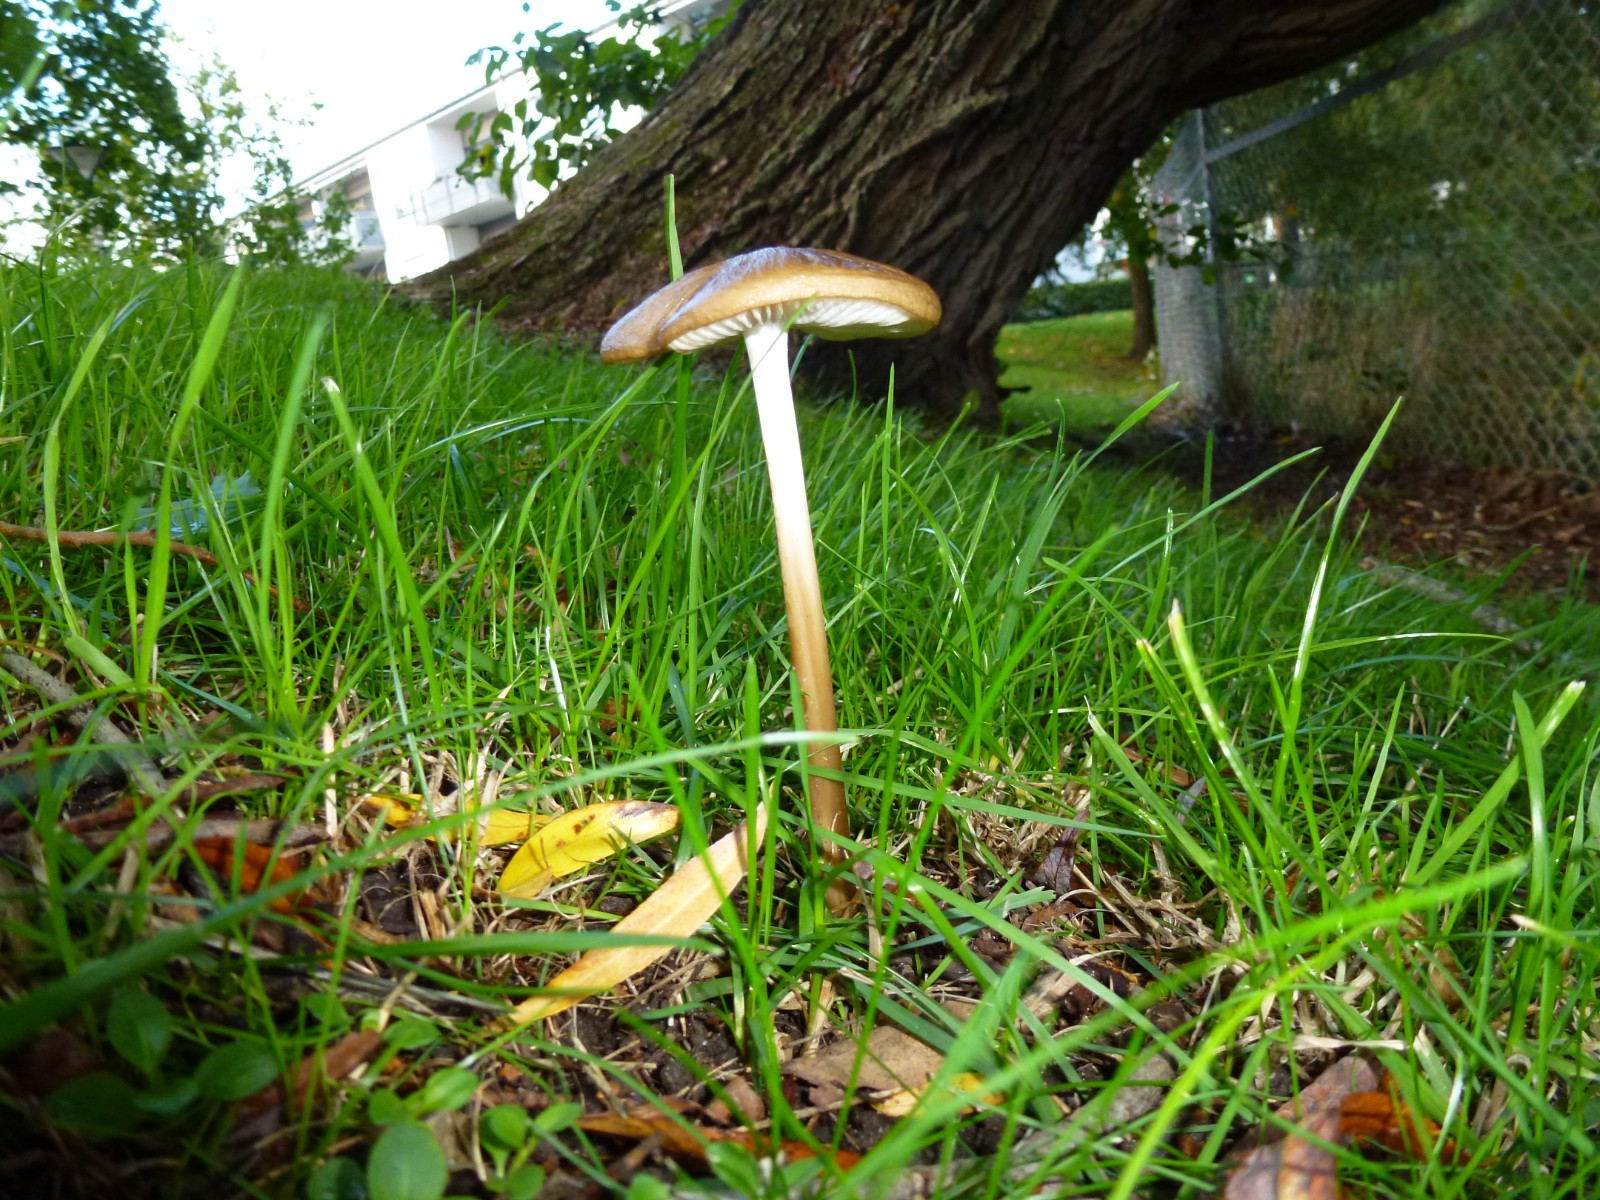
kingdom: Fungi
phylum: Basidiomycota
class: Agaricomycetes
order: Agaricales
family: Physalacriaceae
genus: Hymenopellis
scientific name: Hymenopellis radicata
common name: almindelig pælerodshat
